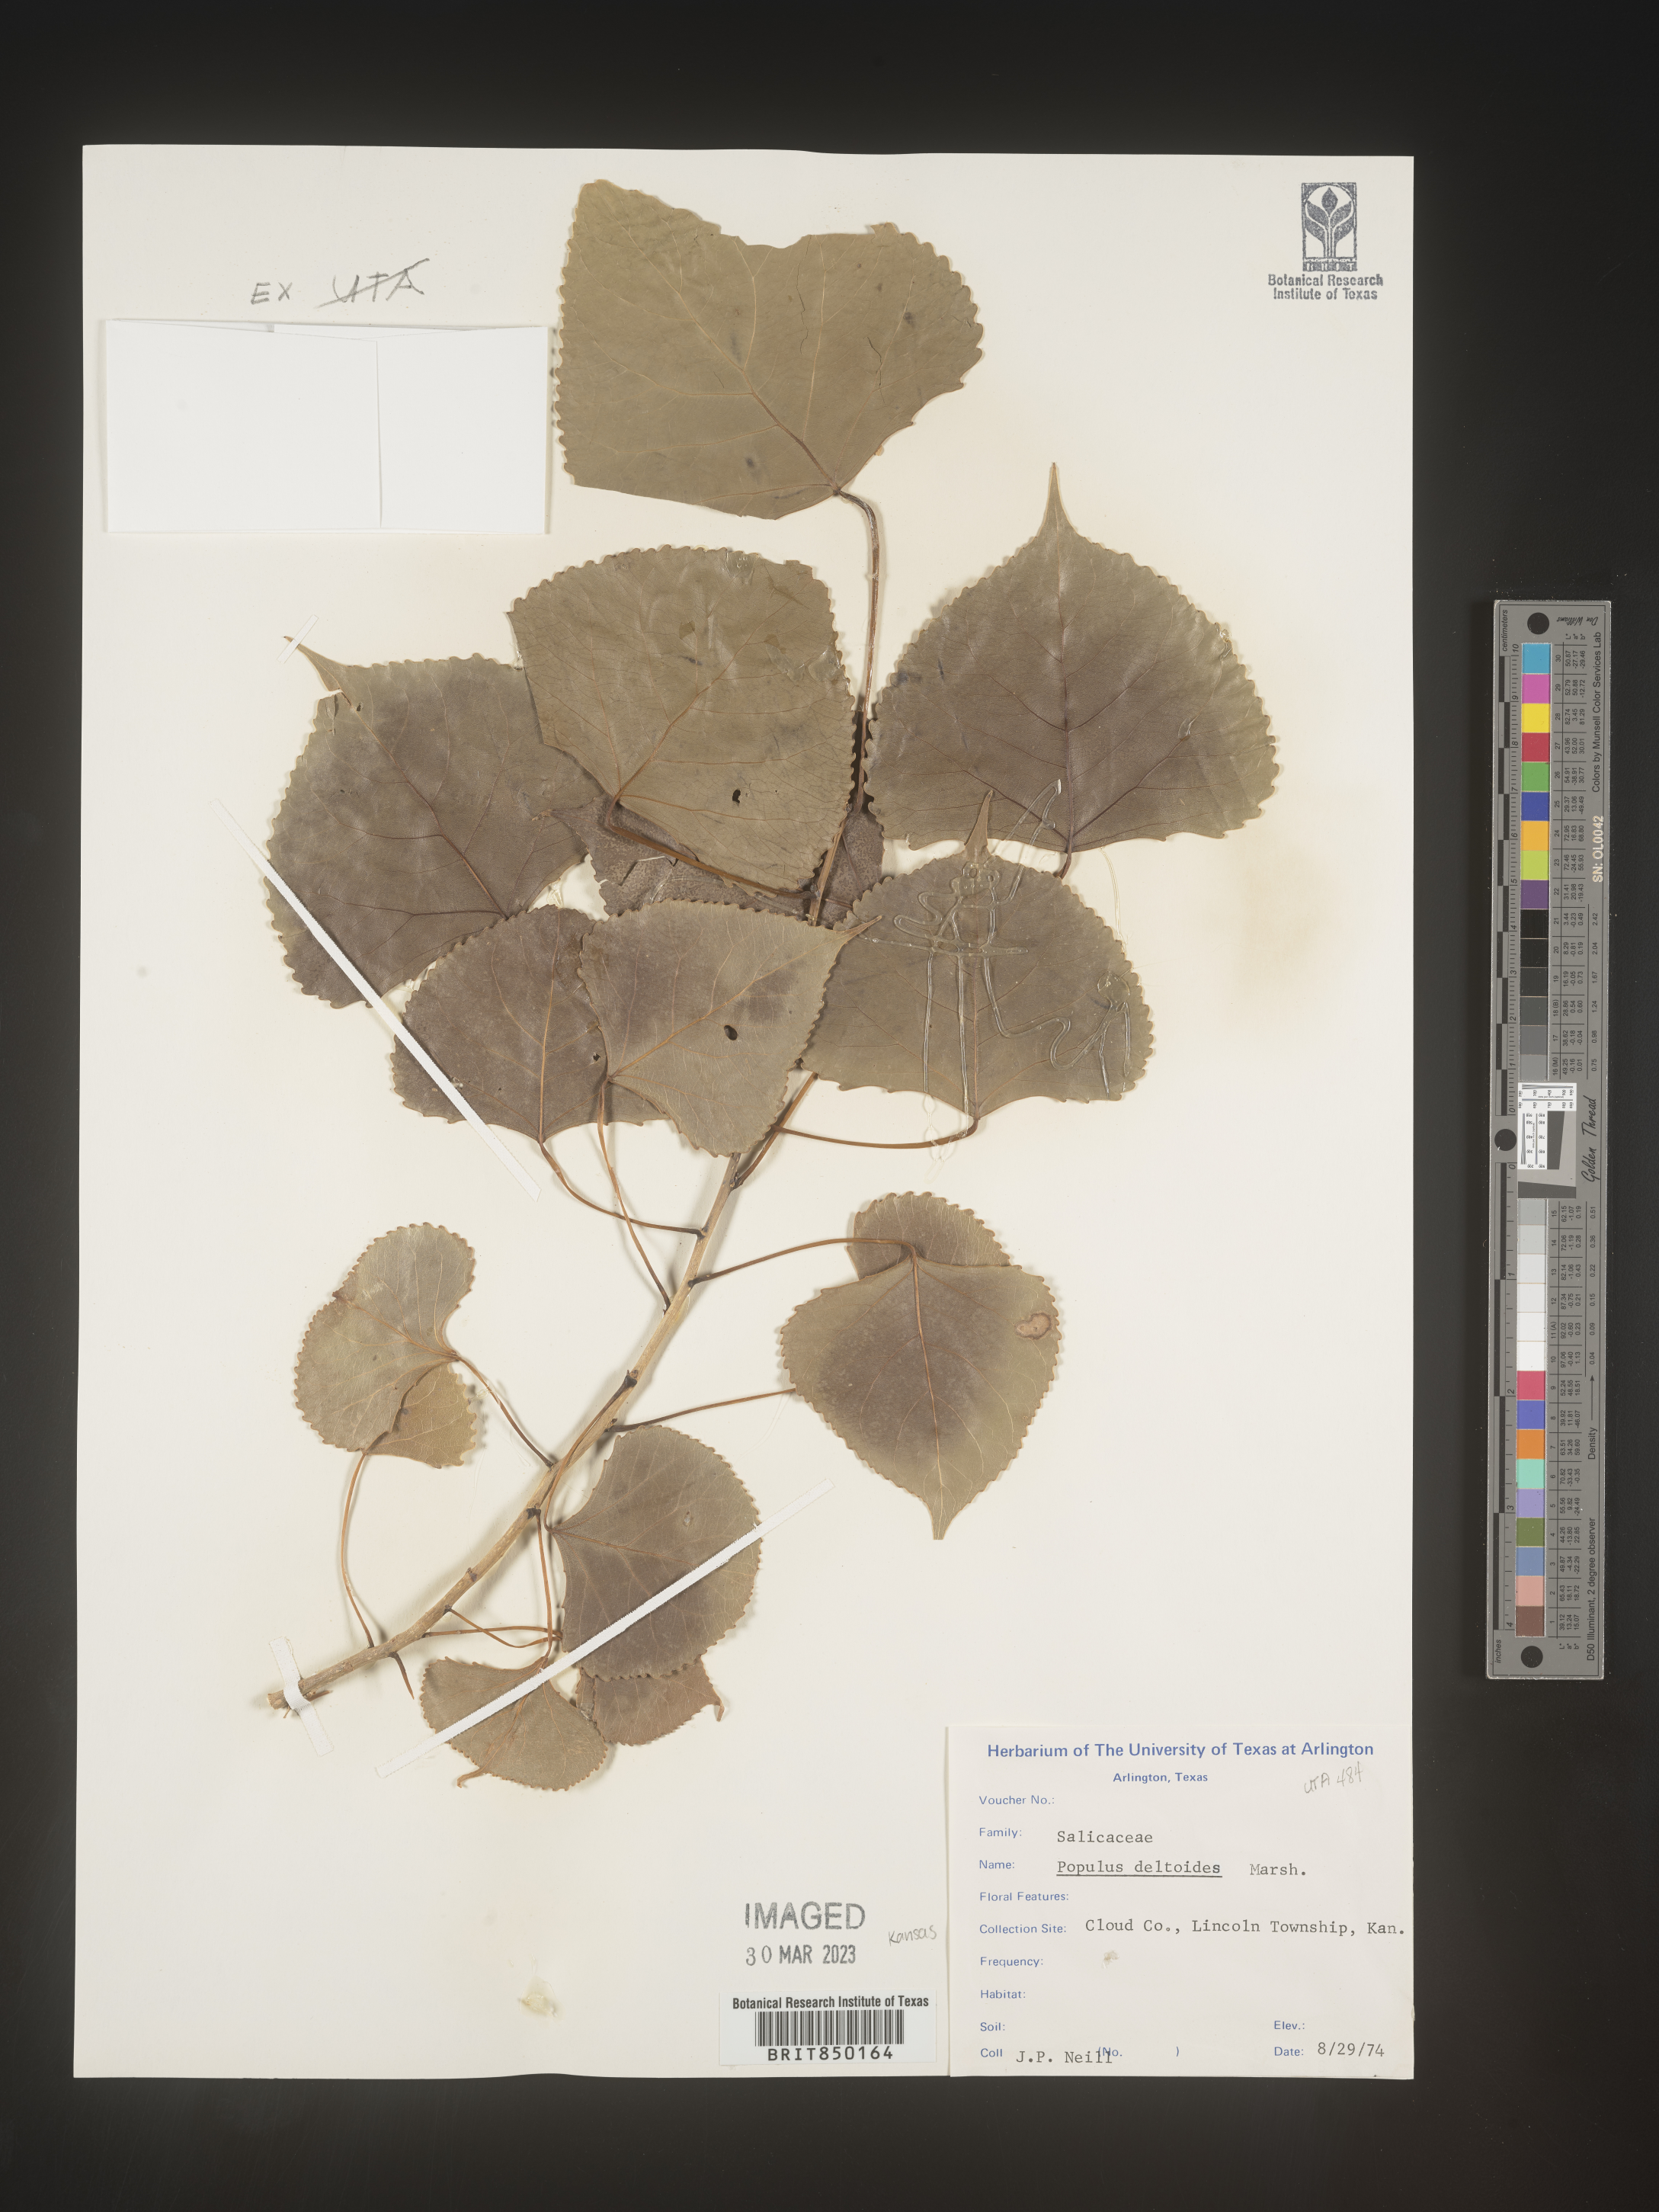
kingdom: Plantae
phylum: Tracheophyta
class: Magnoliopsida
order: Malpighiales
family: Salicaceae
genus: Populus
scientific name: Populus deltoides
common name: Eastern cottonwood
